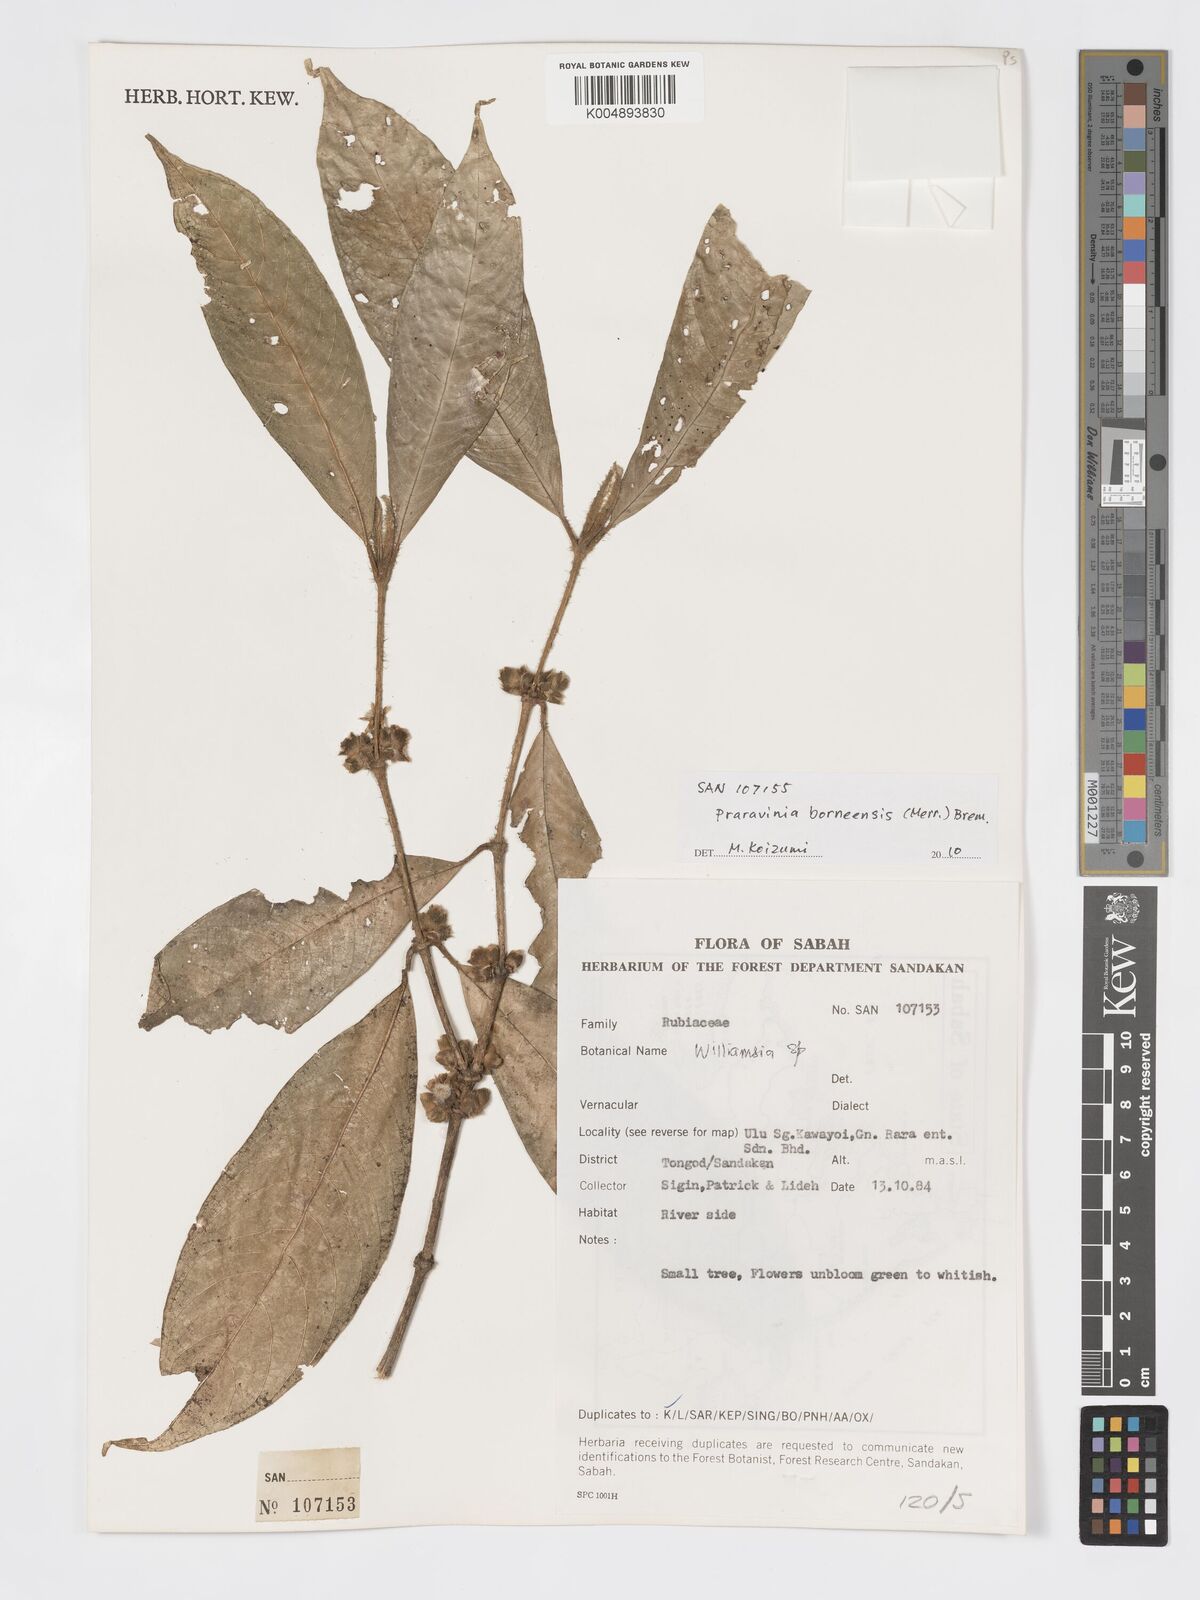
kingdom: Plantae
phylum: Tracheophyta
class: Magnoliopsida
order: Gentianales
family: Rubiaceae
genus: Praravinia
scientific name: Praravinia borneensis
